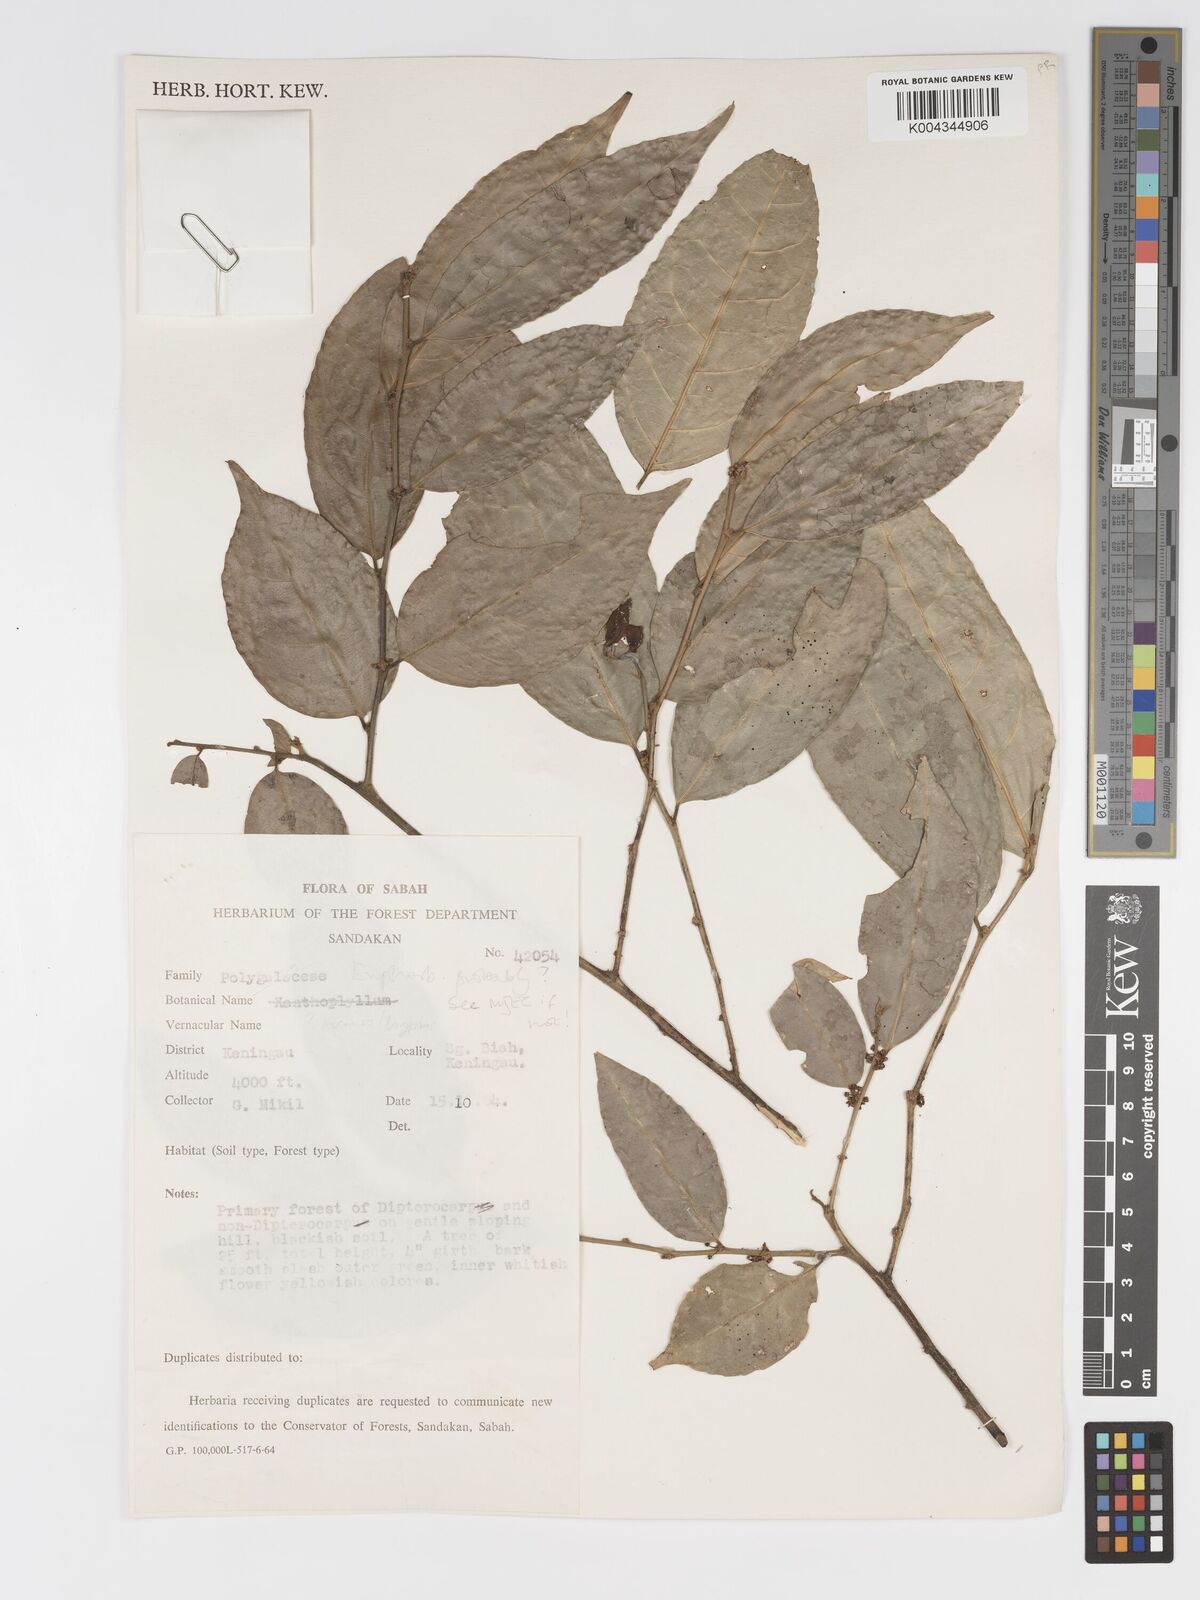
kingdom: Plantae
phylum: Tracheophyta
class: Magnoliopsida
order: Malpighiales
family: Putranjivaceae
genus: Drypetes
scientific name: Drypetes
